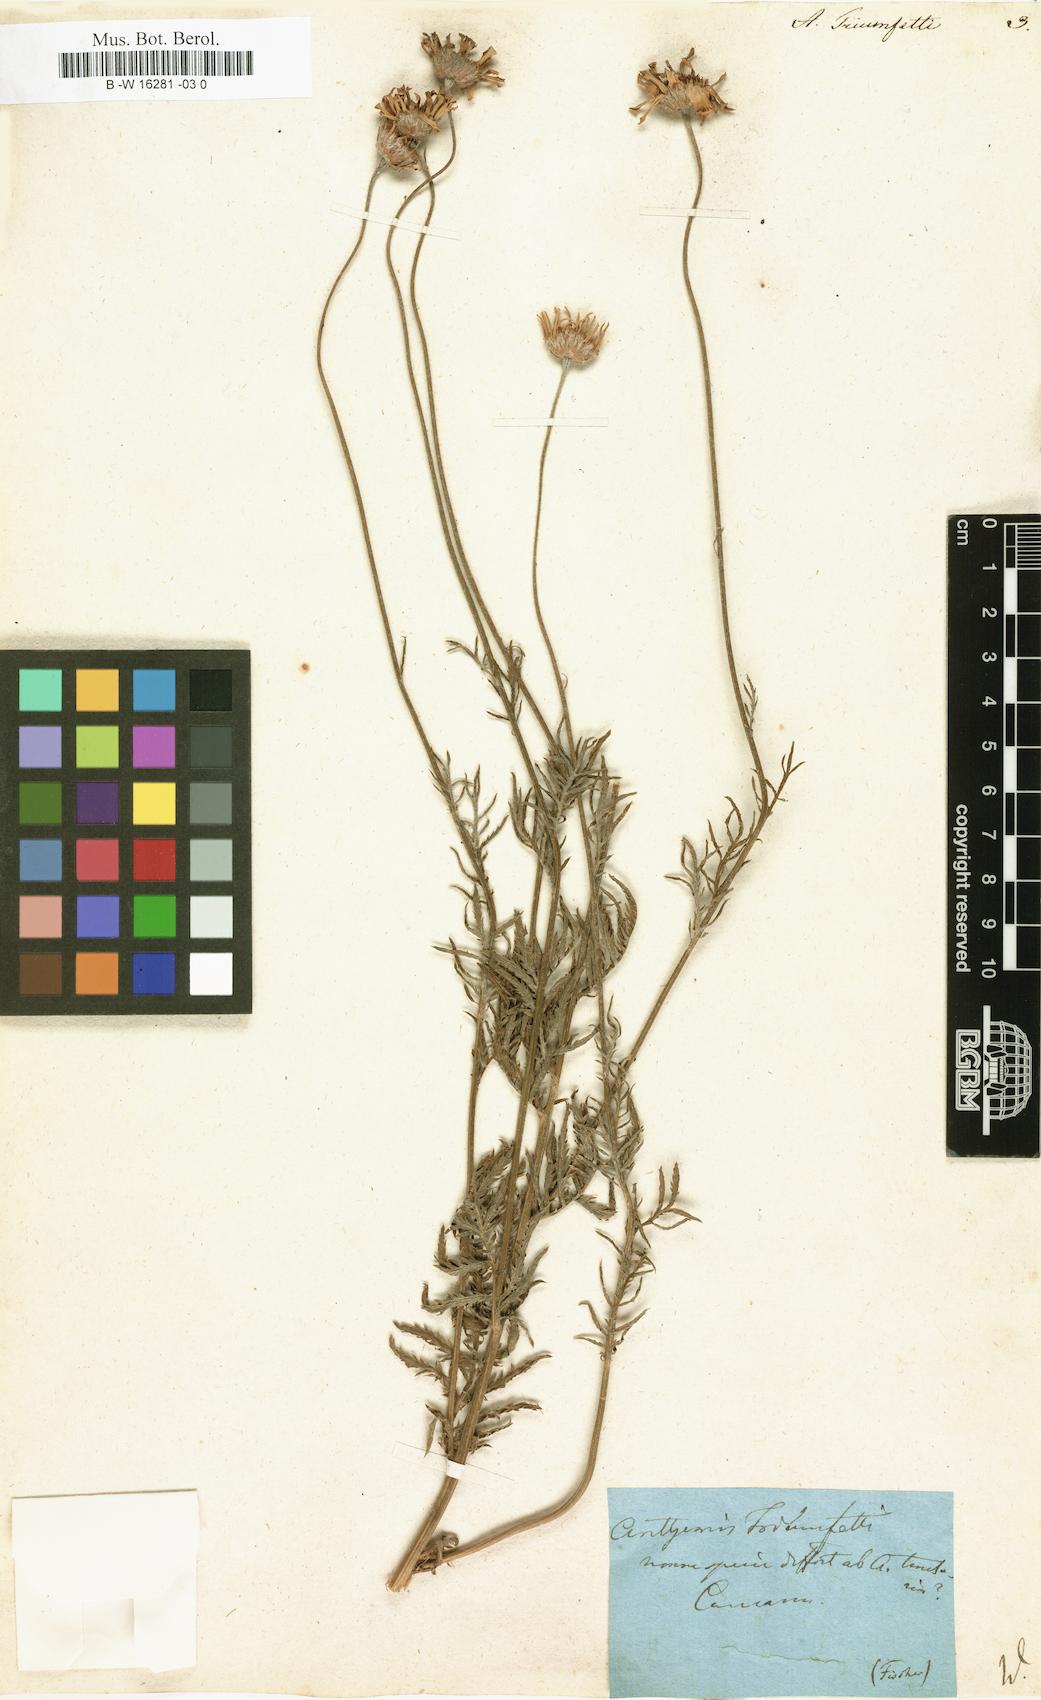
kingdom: Plantae
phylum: Tracheophyta
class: Magnoliopsida
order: Asterales
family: Asteraceae
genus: Cota
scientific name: Cota triumfetti
